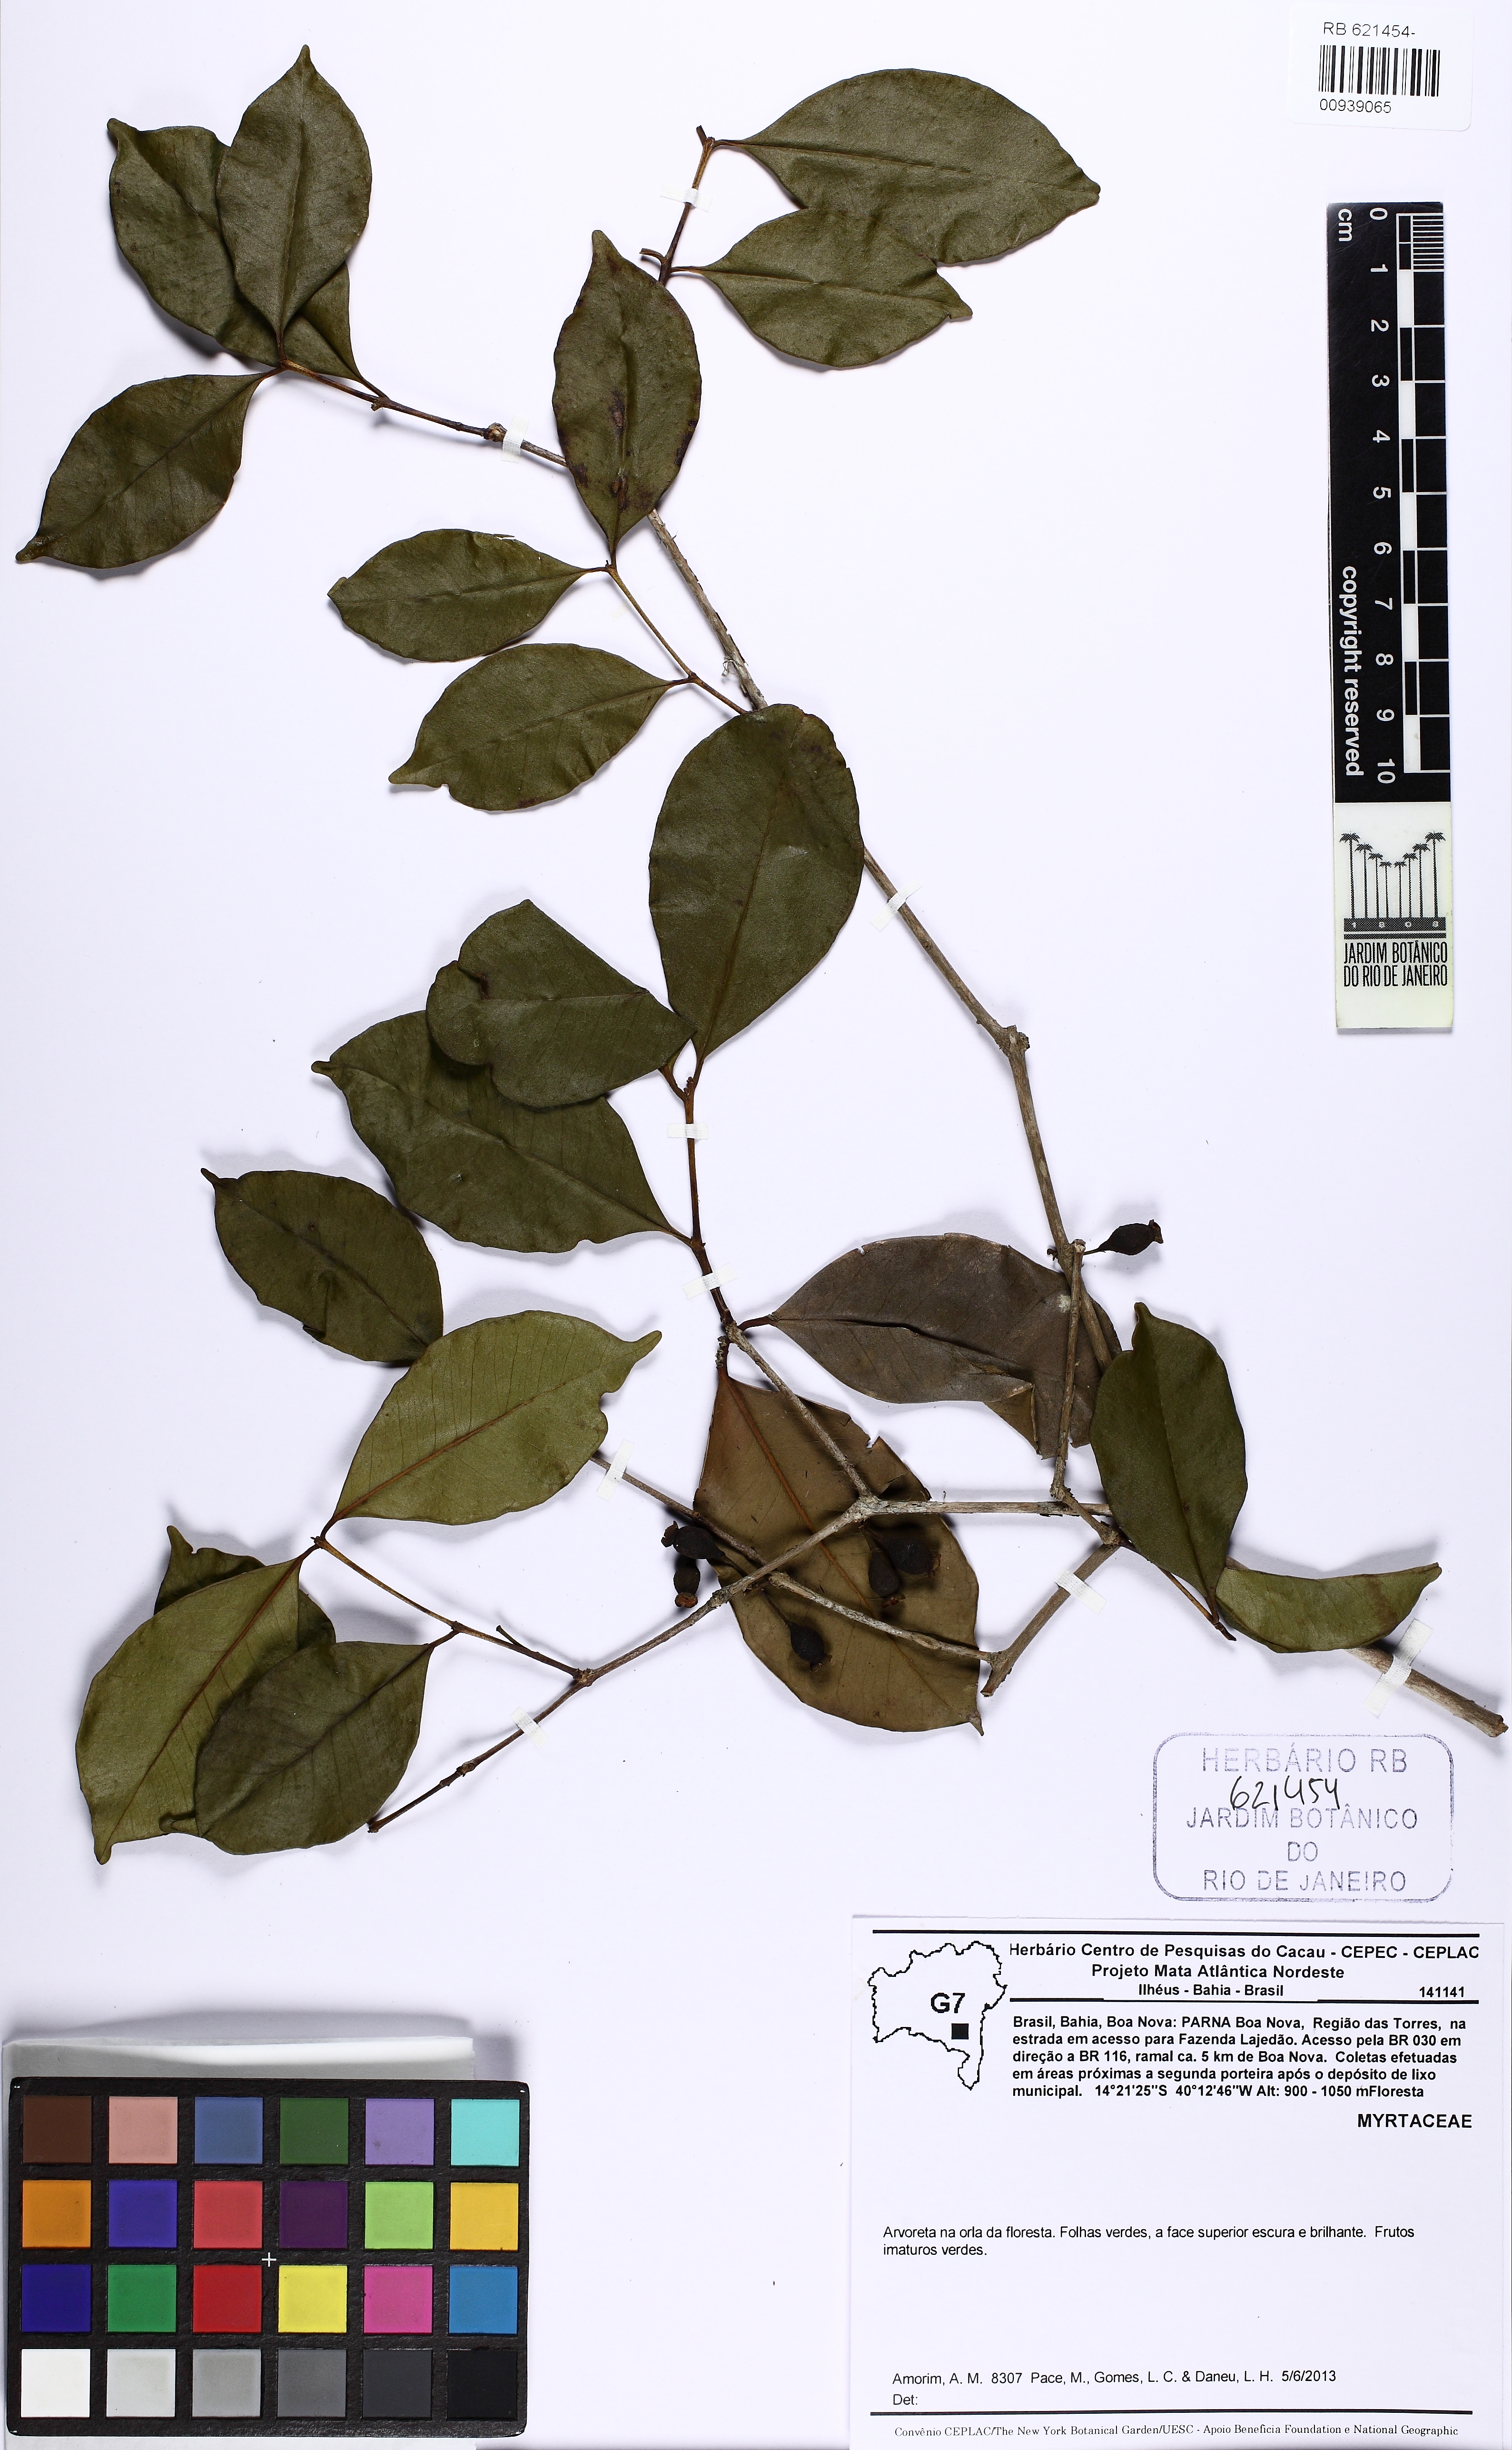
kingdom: Plantae
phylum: Tracheophyta
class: Magnoliopsida
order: Myrtales
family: Myrtaceae
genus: Psidium
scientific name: Psidium myrtoides
